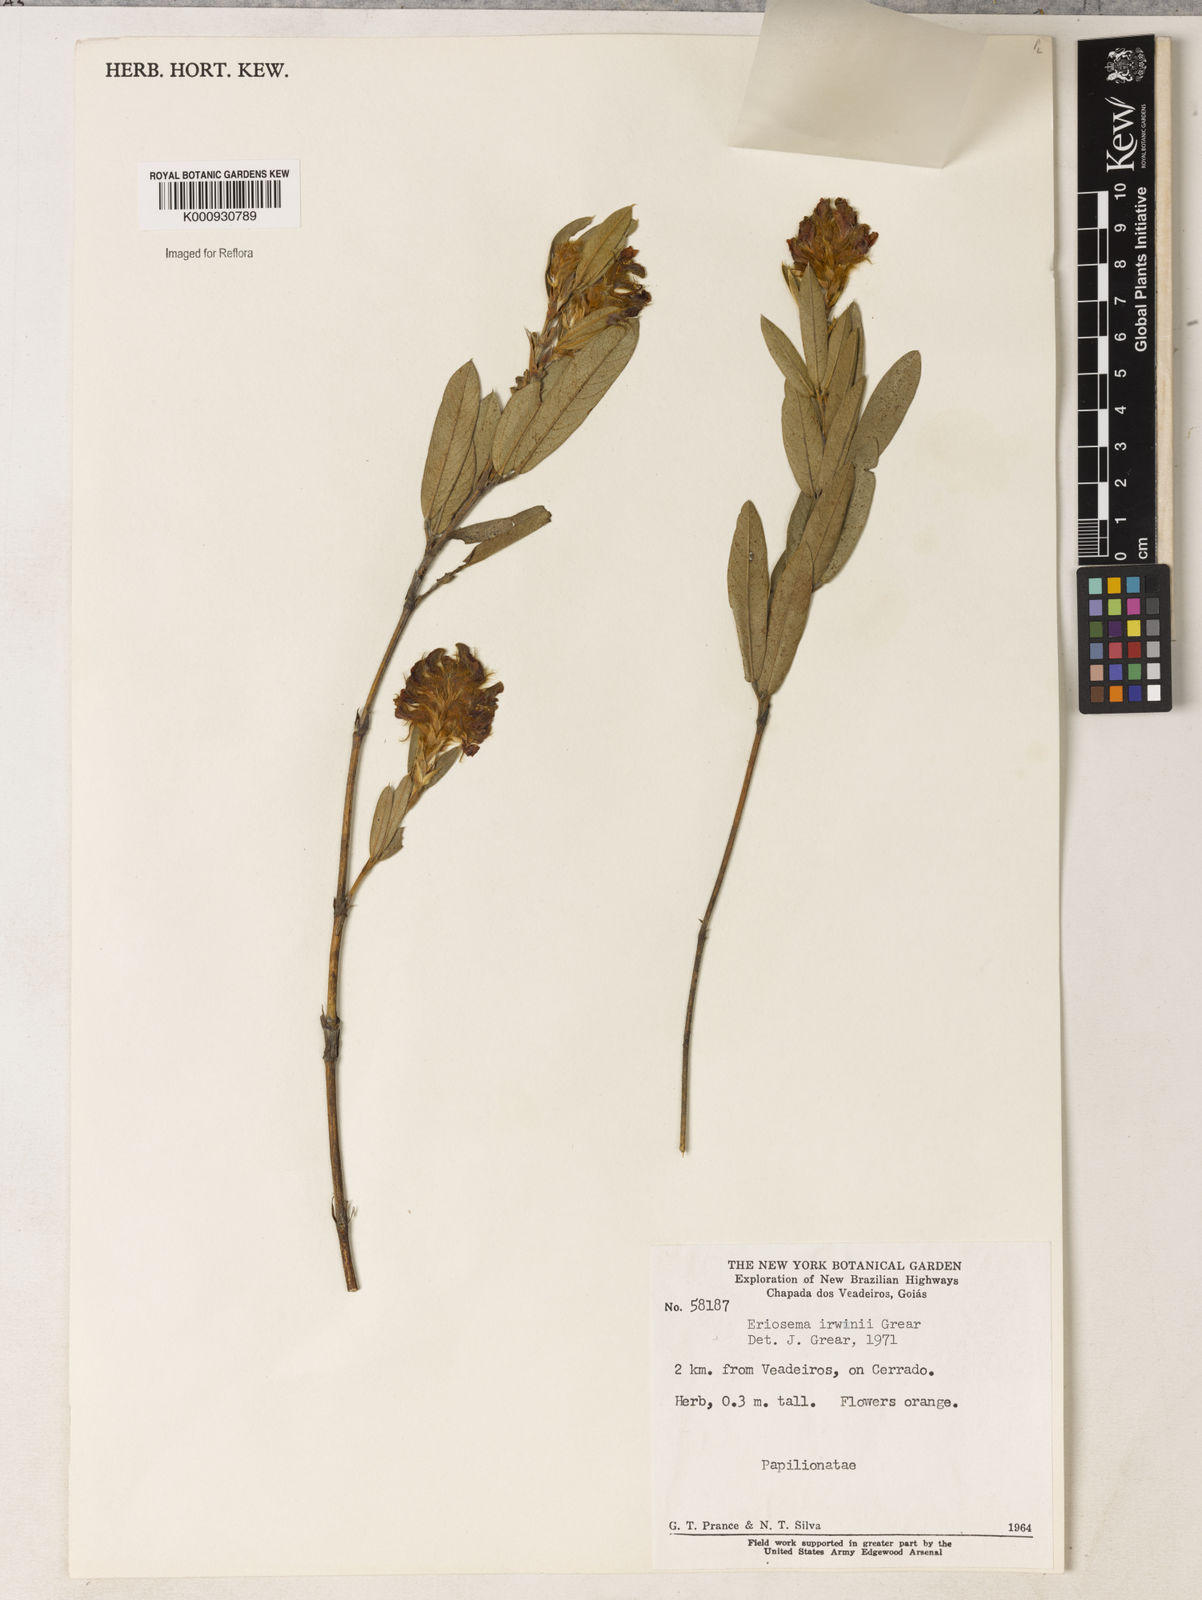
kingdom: Plantae
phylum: Tracheophyta
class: Magnoliopsida
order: Fabales
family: Fabaceae
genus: Eriosema
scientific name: Eriosema irwinii
